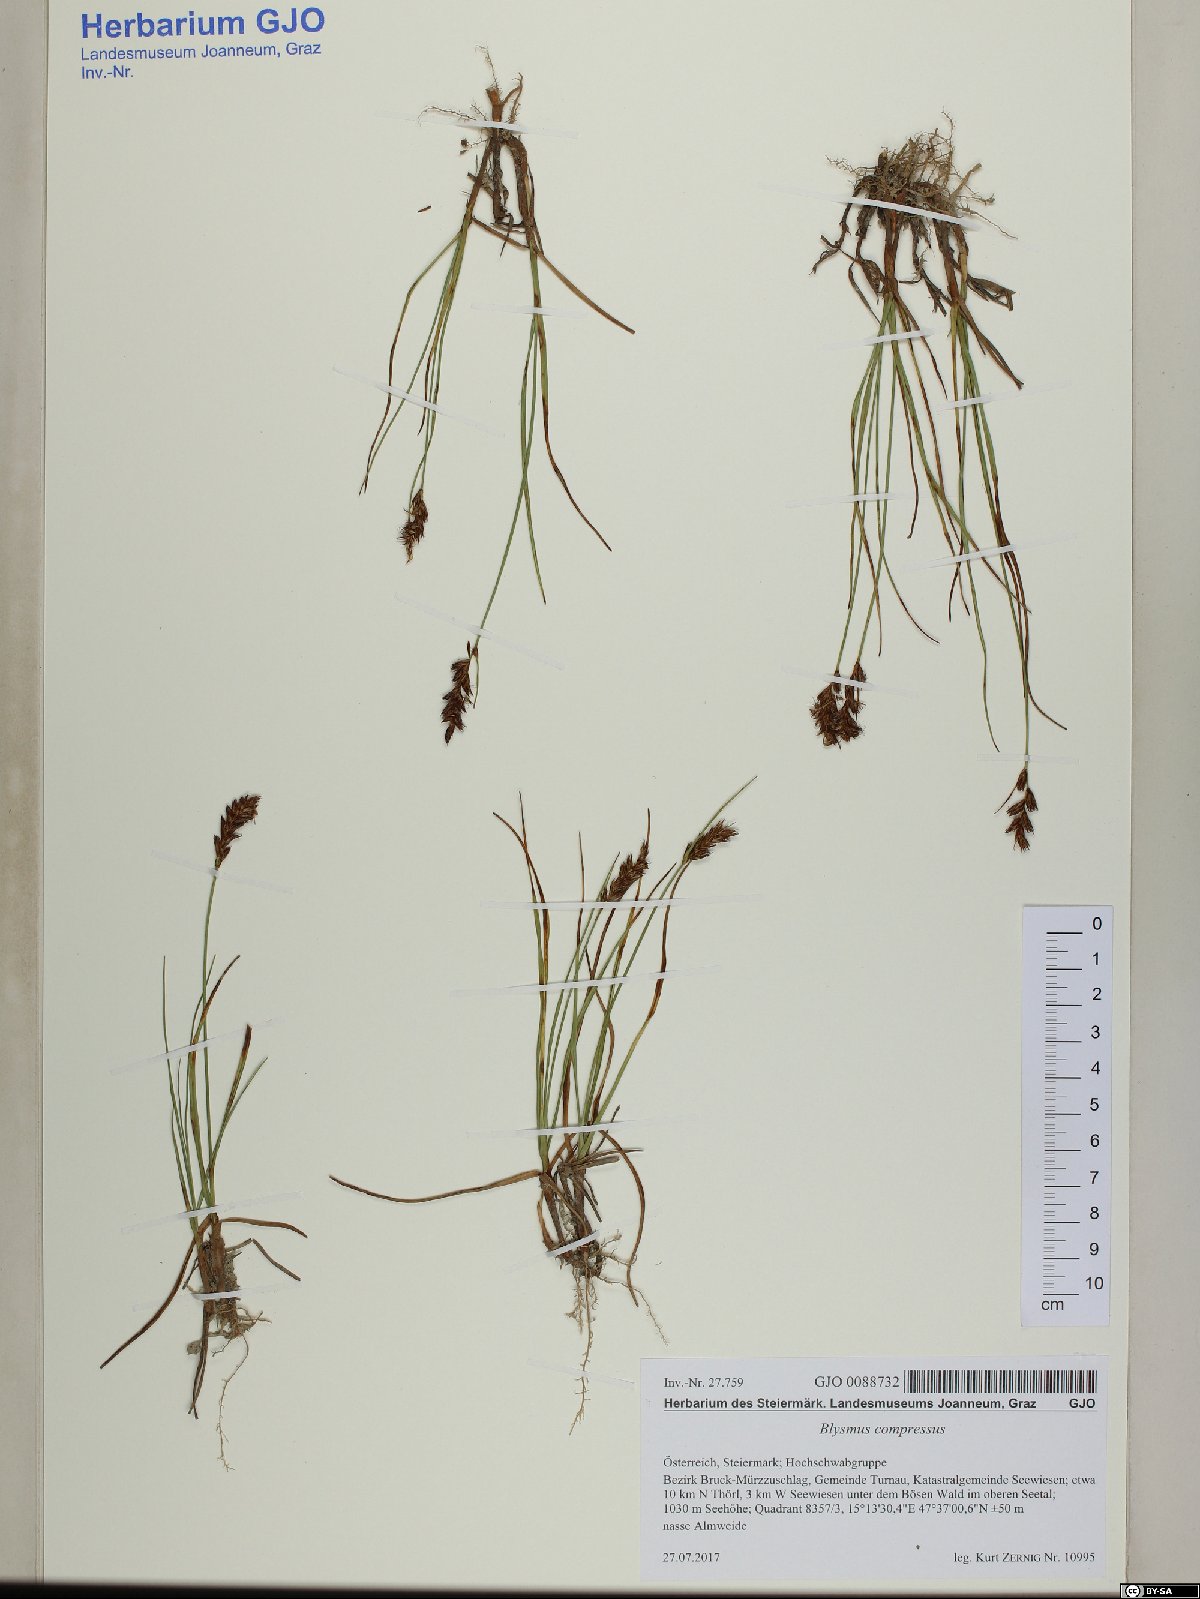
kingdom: Plantae
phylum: Tracheophyta
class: Liliopsida
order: Poales
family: Cyperaceae
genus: Blysmus
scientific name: Blysmus compressus
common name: Flat-sedge
